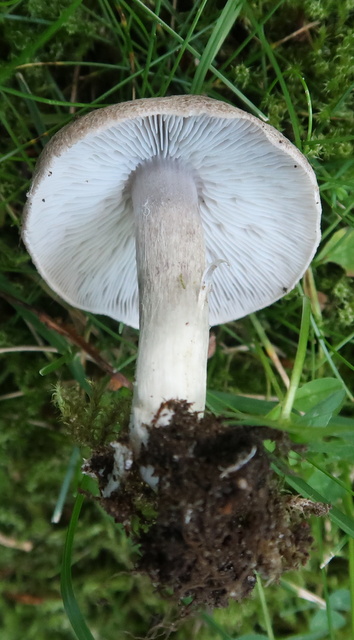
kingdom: Fungi
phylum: Basidiomycota
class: Agaricomycetes
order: Agaricales
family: Tricholomataceae
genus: Tricholoma
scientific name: Tricholoma terreum
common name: jordfarvet ridderhat
